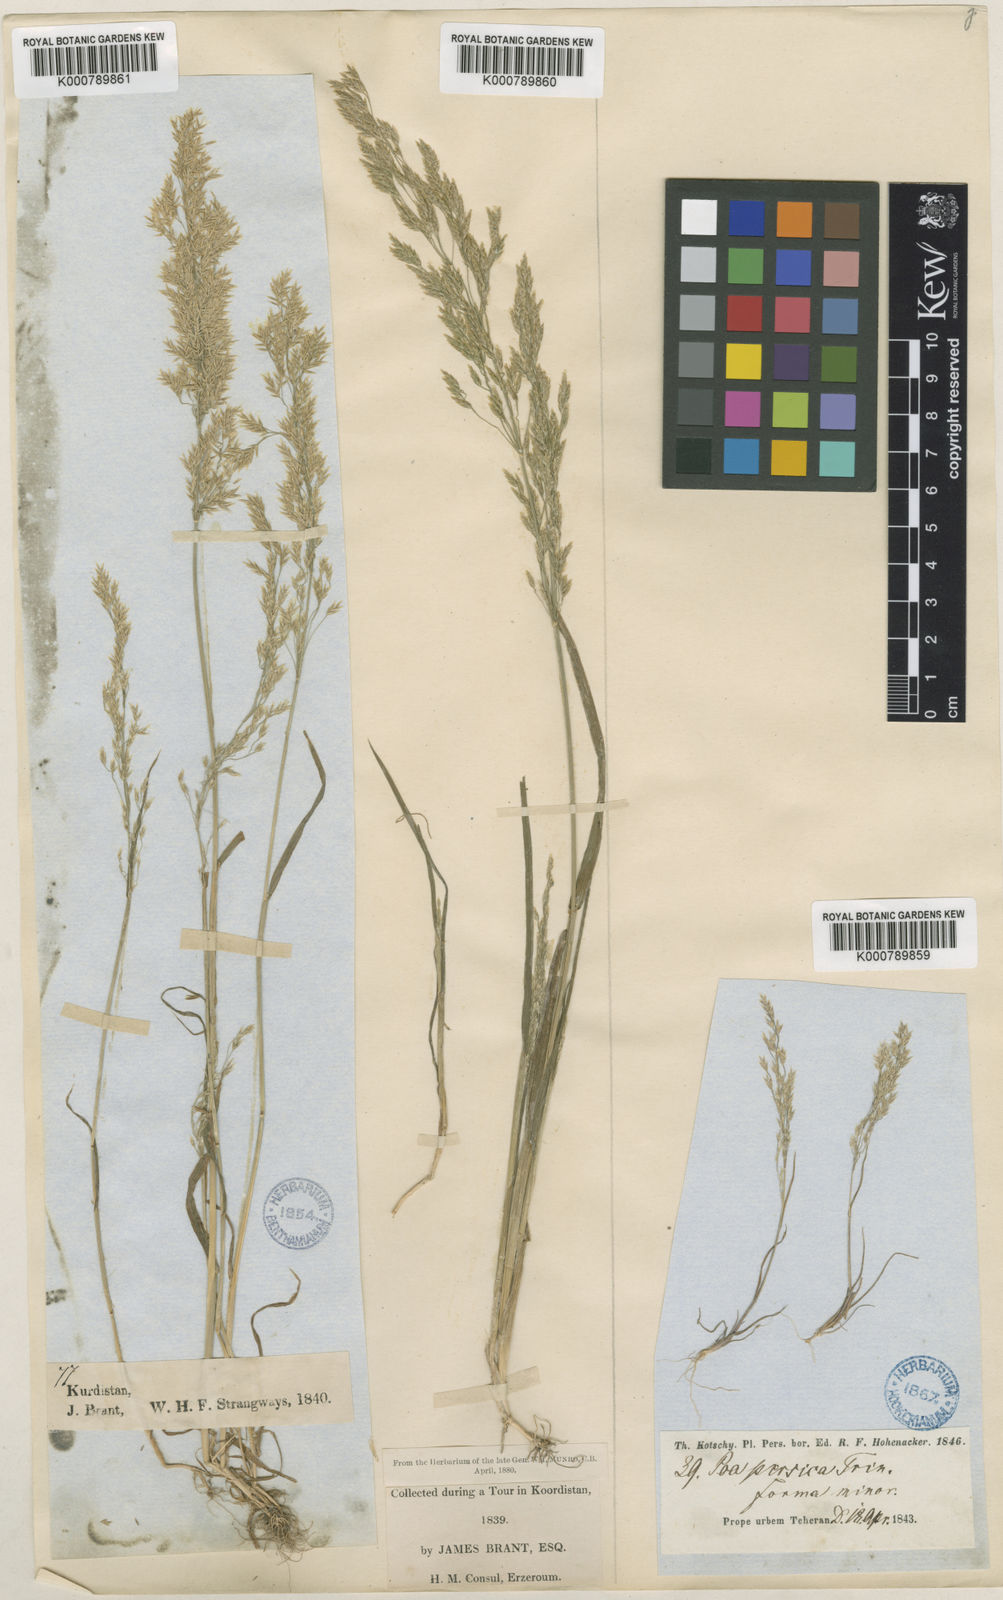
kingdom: Plantae
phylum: Tracheophyta
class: Liliopsida
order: Poales
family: Poaceae
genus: Poa
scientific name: Poa persica
